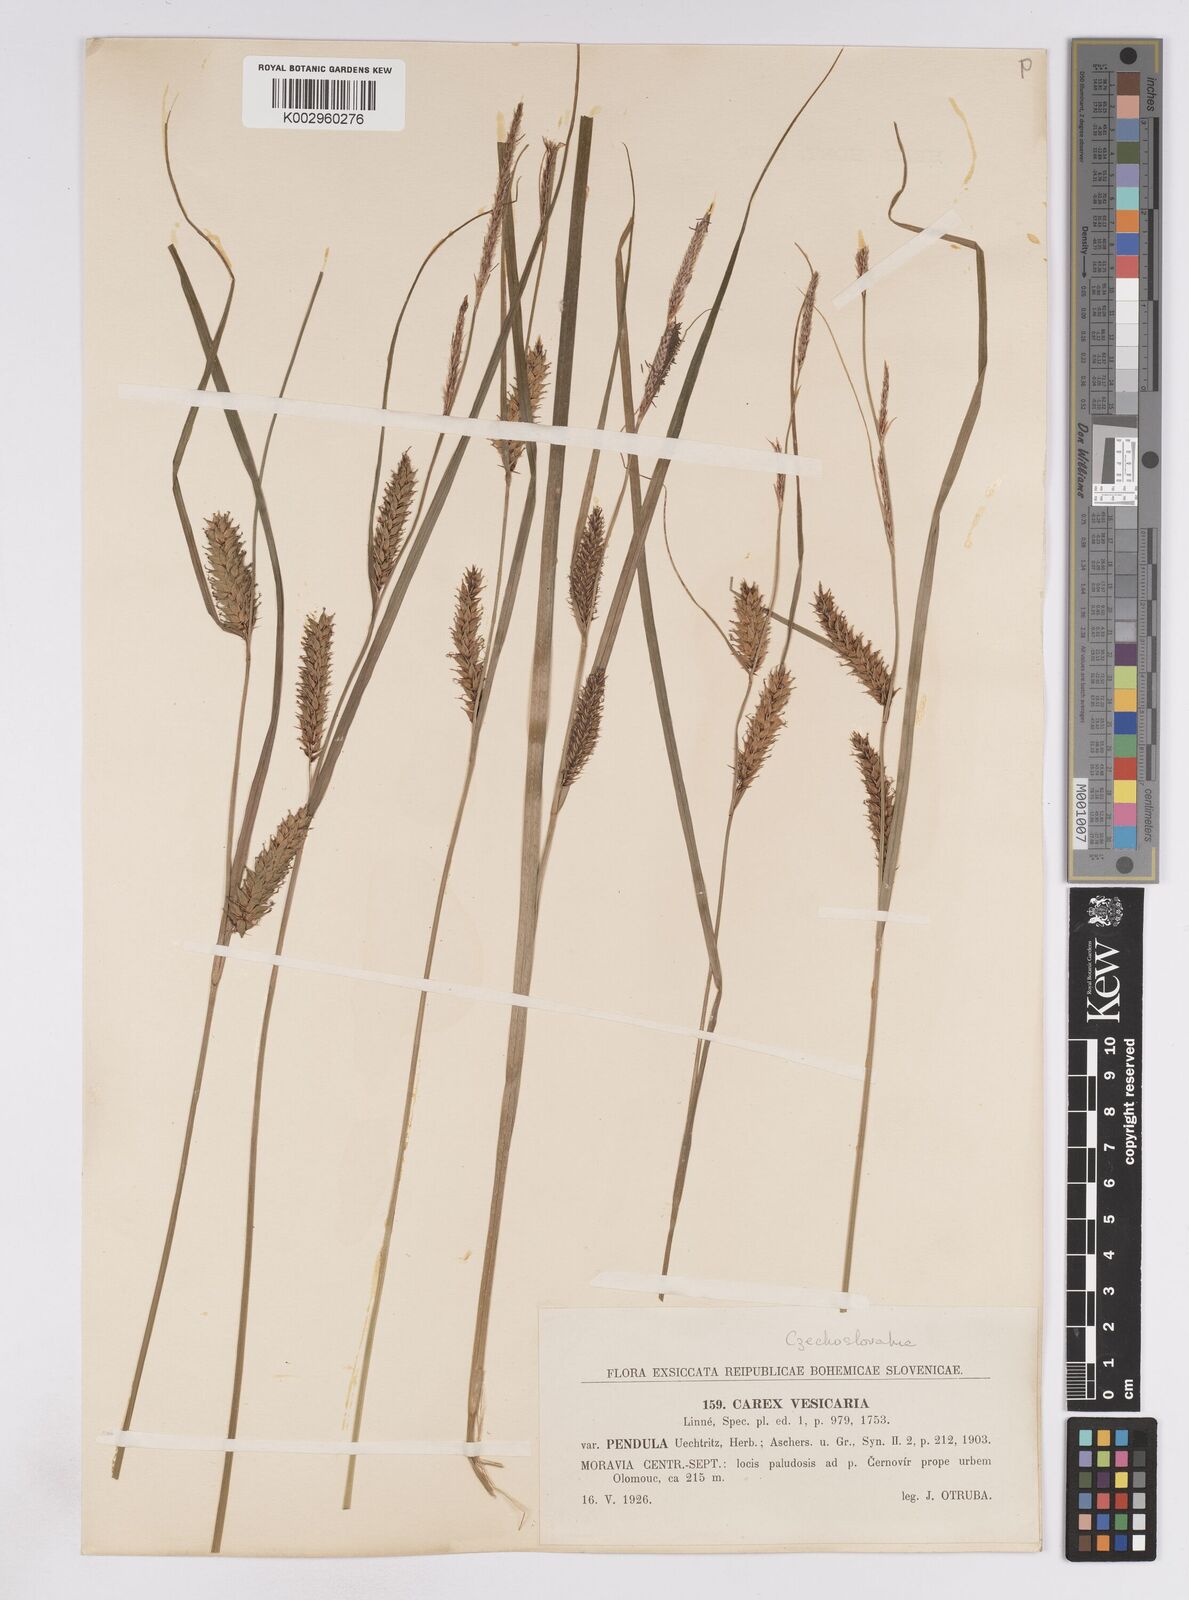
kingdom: Plantae
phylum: Tracheophyta
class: Liliopsida
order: Poales
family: Cyperaceae
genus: Carex
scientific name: Carex vesicaria
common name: Bladder-sedge
